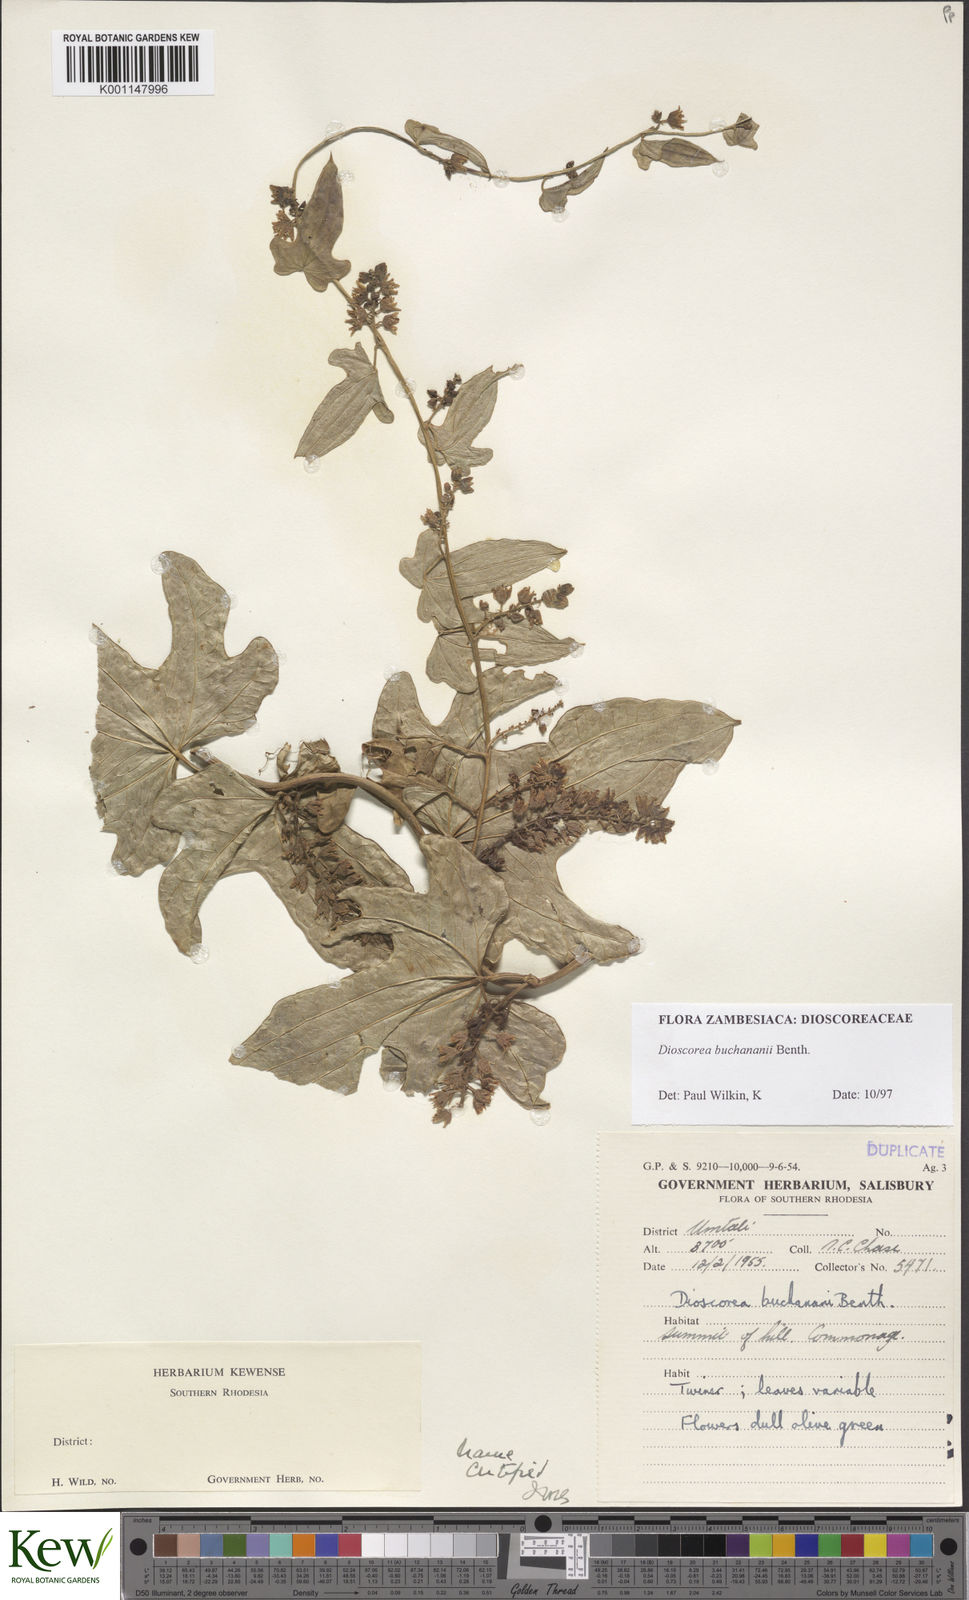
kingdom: Plantae
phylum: Tracheophyta
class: Liliopsida
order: Dioscoreales
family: Dioscoreaceae
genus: Dioscorea
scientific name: Dioscorea buchananii
